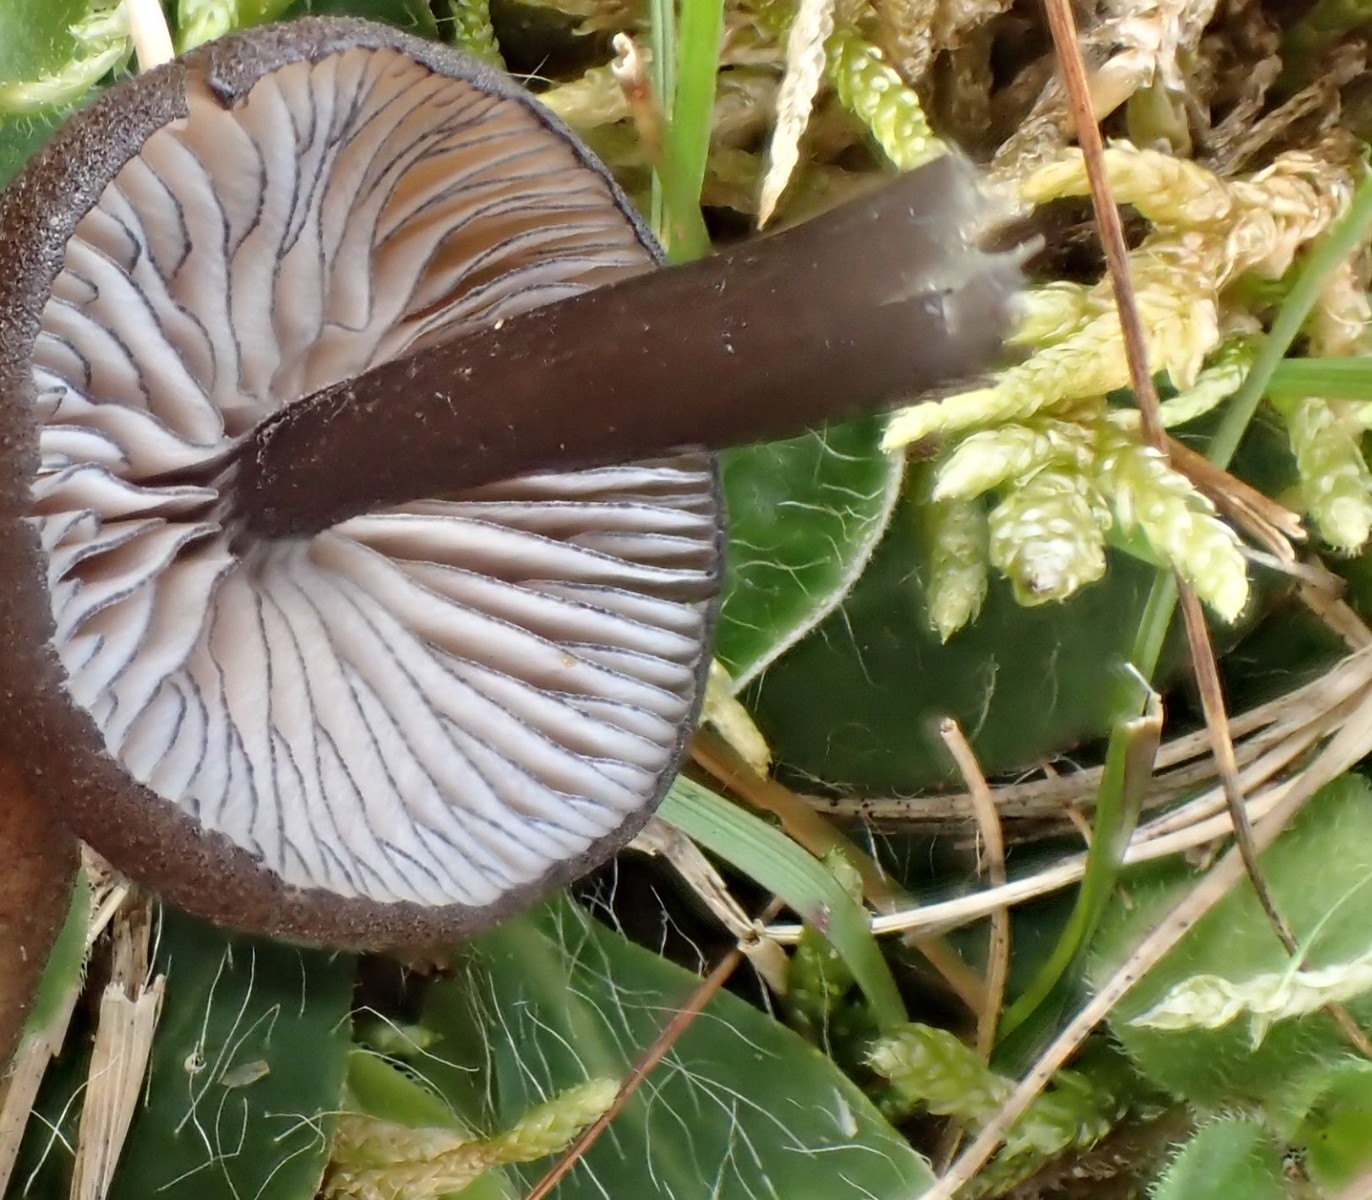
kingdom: Fungi
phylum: Basidiomycota
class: Agaricomycetes
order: Agaricales
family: Entolomataceae
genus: Entoloma
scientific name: Entoloma
